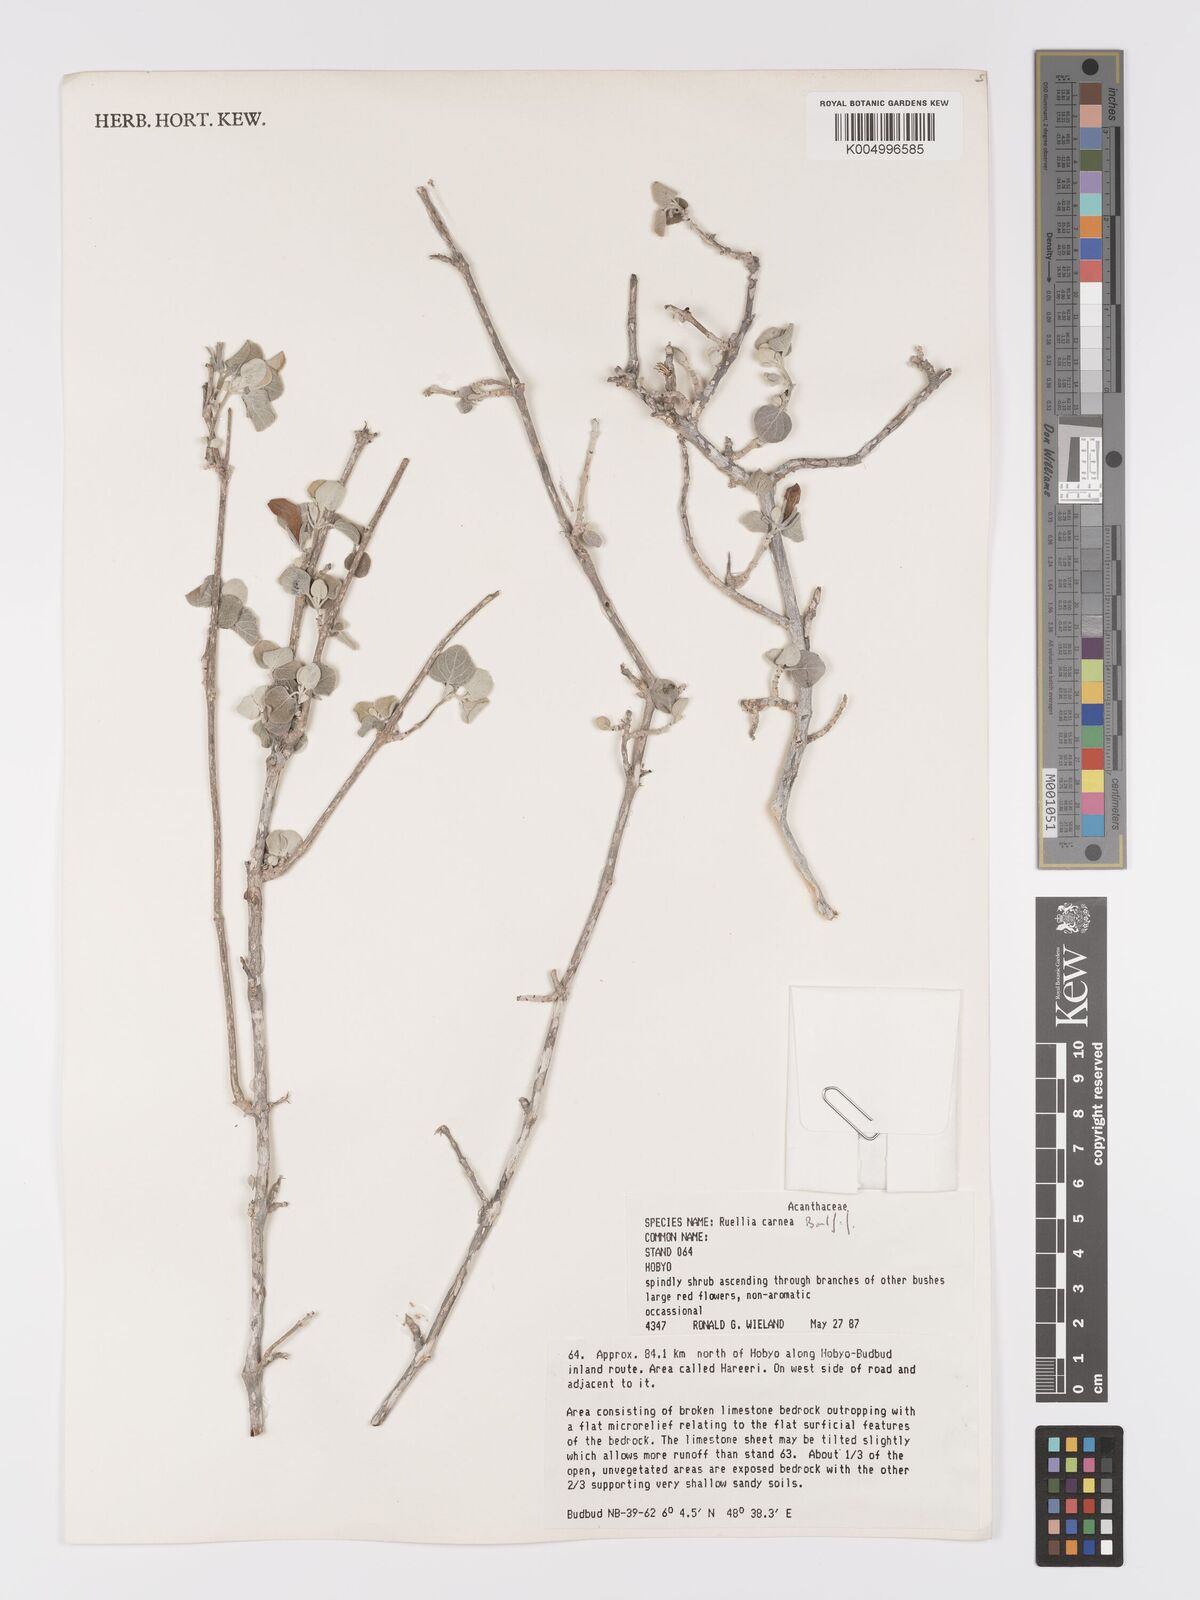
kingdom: Plantae
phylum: Tracheophyta
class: Magnoliopsida
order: Lamiales
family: Acanthaceae
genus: Ruellia
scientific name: Ruellia carnea
